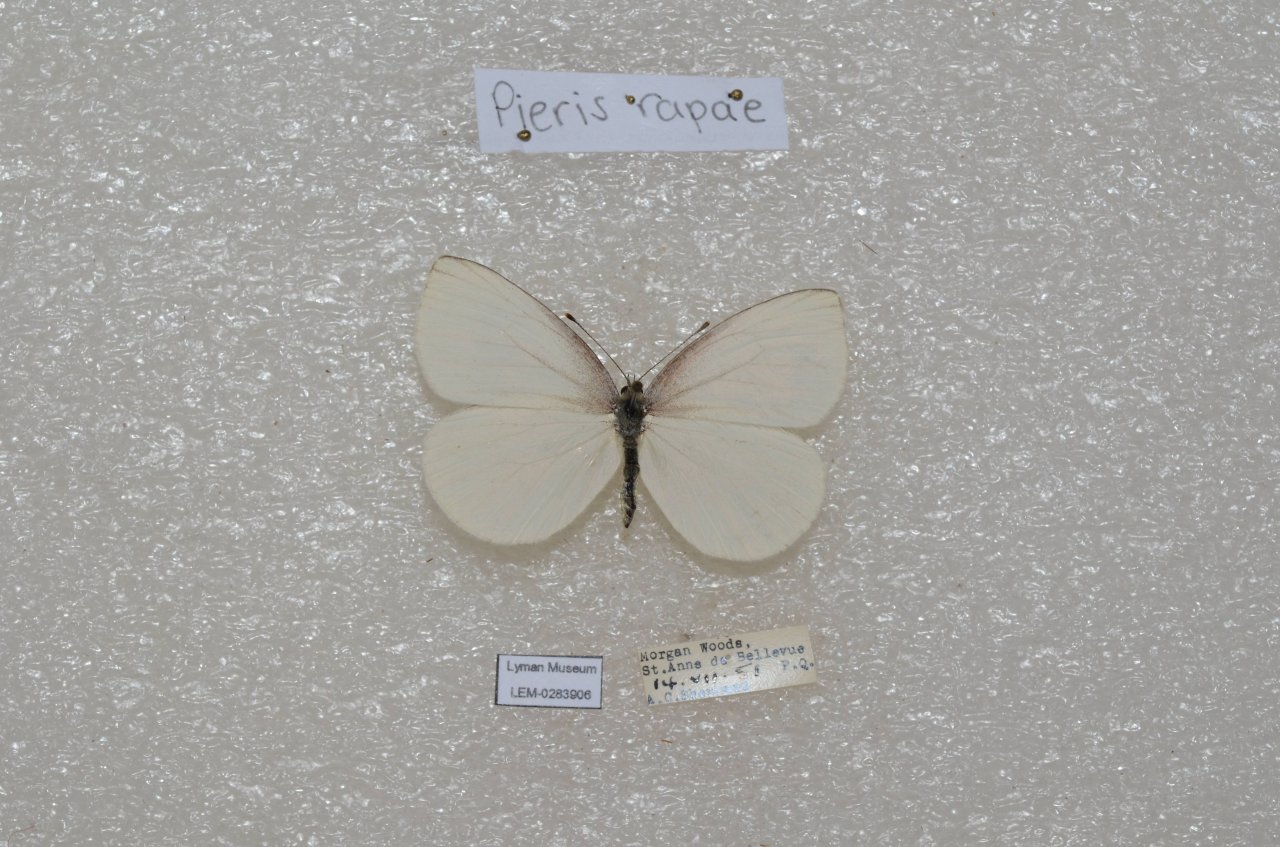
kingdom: Animalia
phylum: Arthropoda
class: Insecta
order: Lepidoptera
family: Pieridae
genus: Pieris
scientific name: Pieris oleracea
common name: Mustard White
